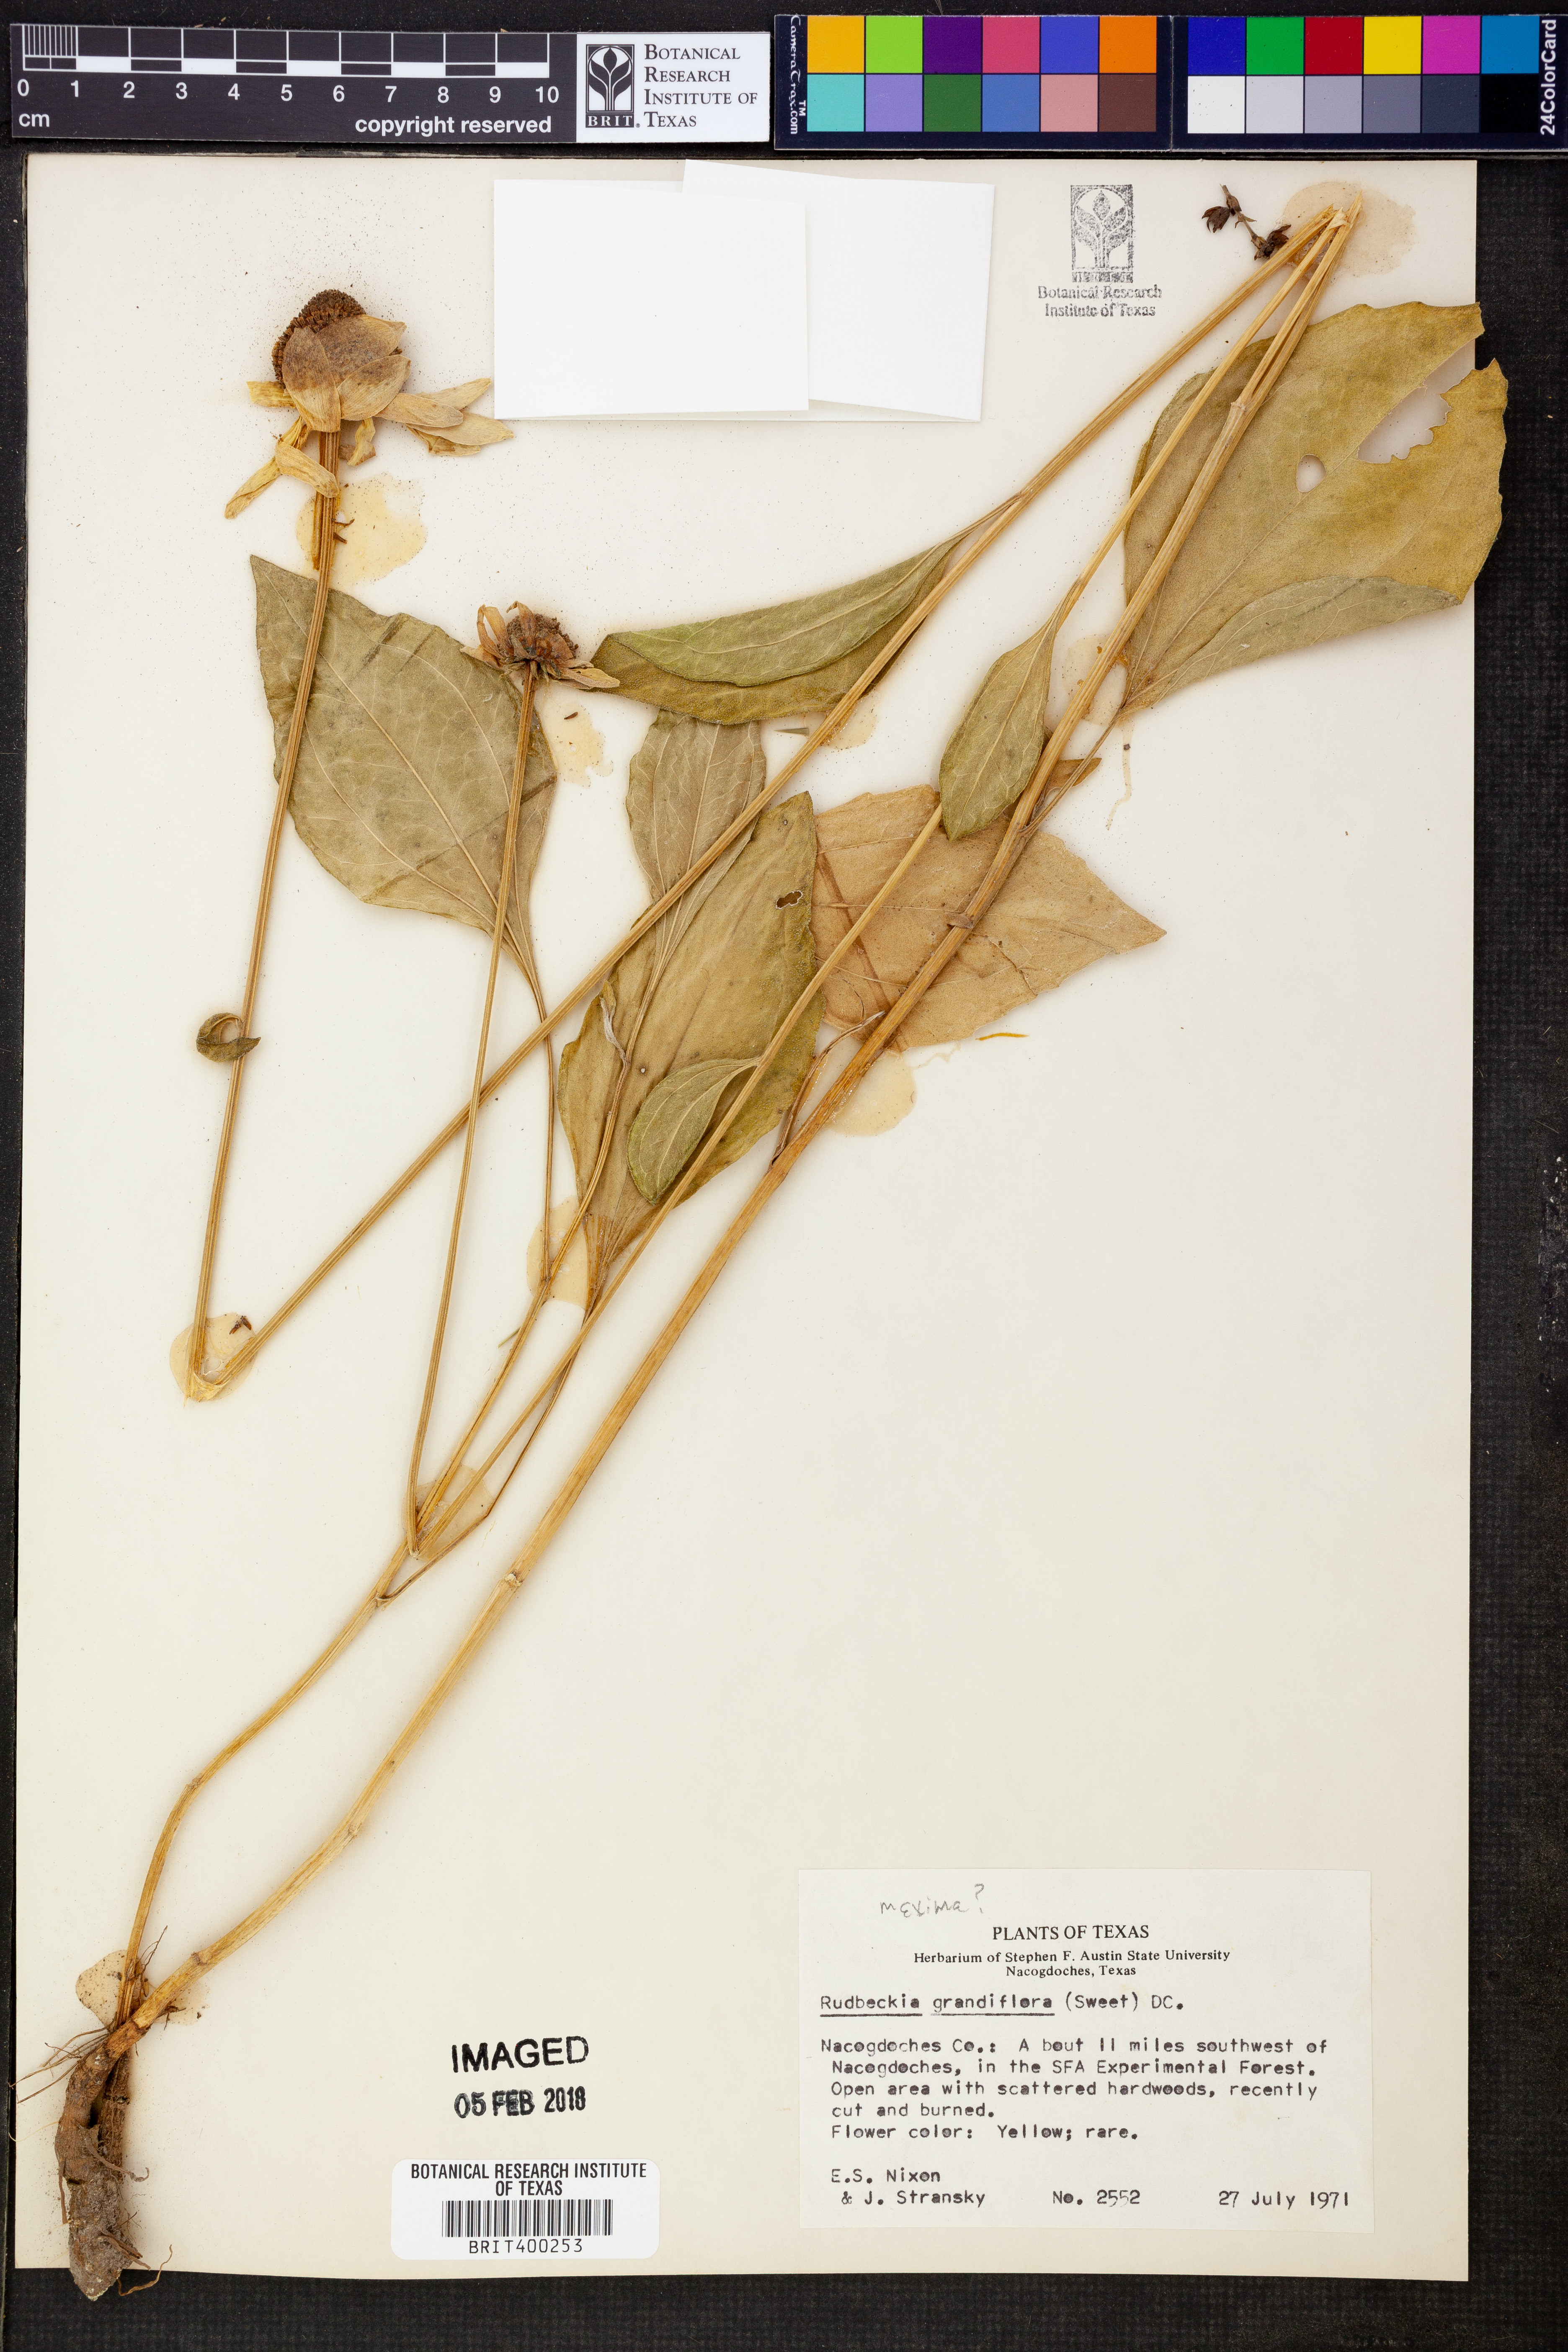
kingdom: Plantae
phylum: Tracheophyta
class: Magnoliopsida
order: Asterales
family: Asteraceae
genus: Rudbeckia
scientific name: Rudbeckia grandiflora
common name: Large-flowered coneflower
